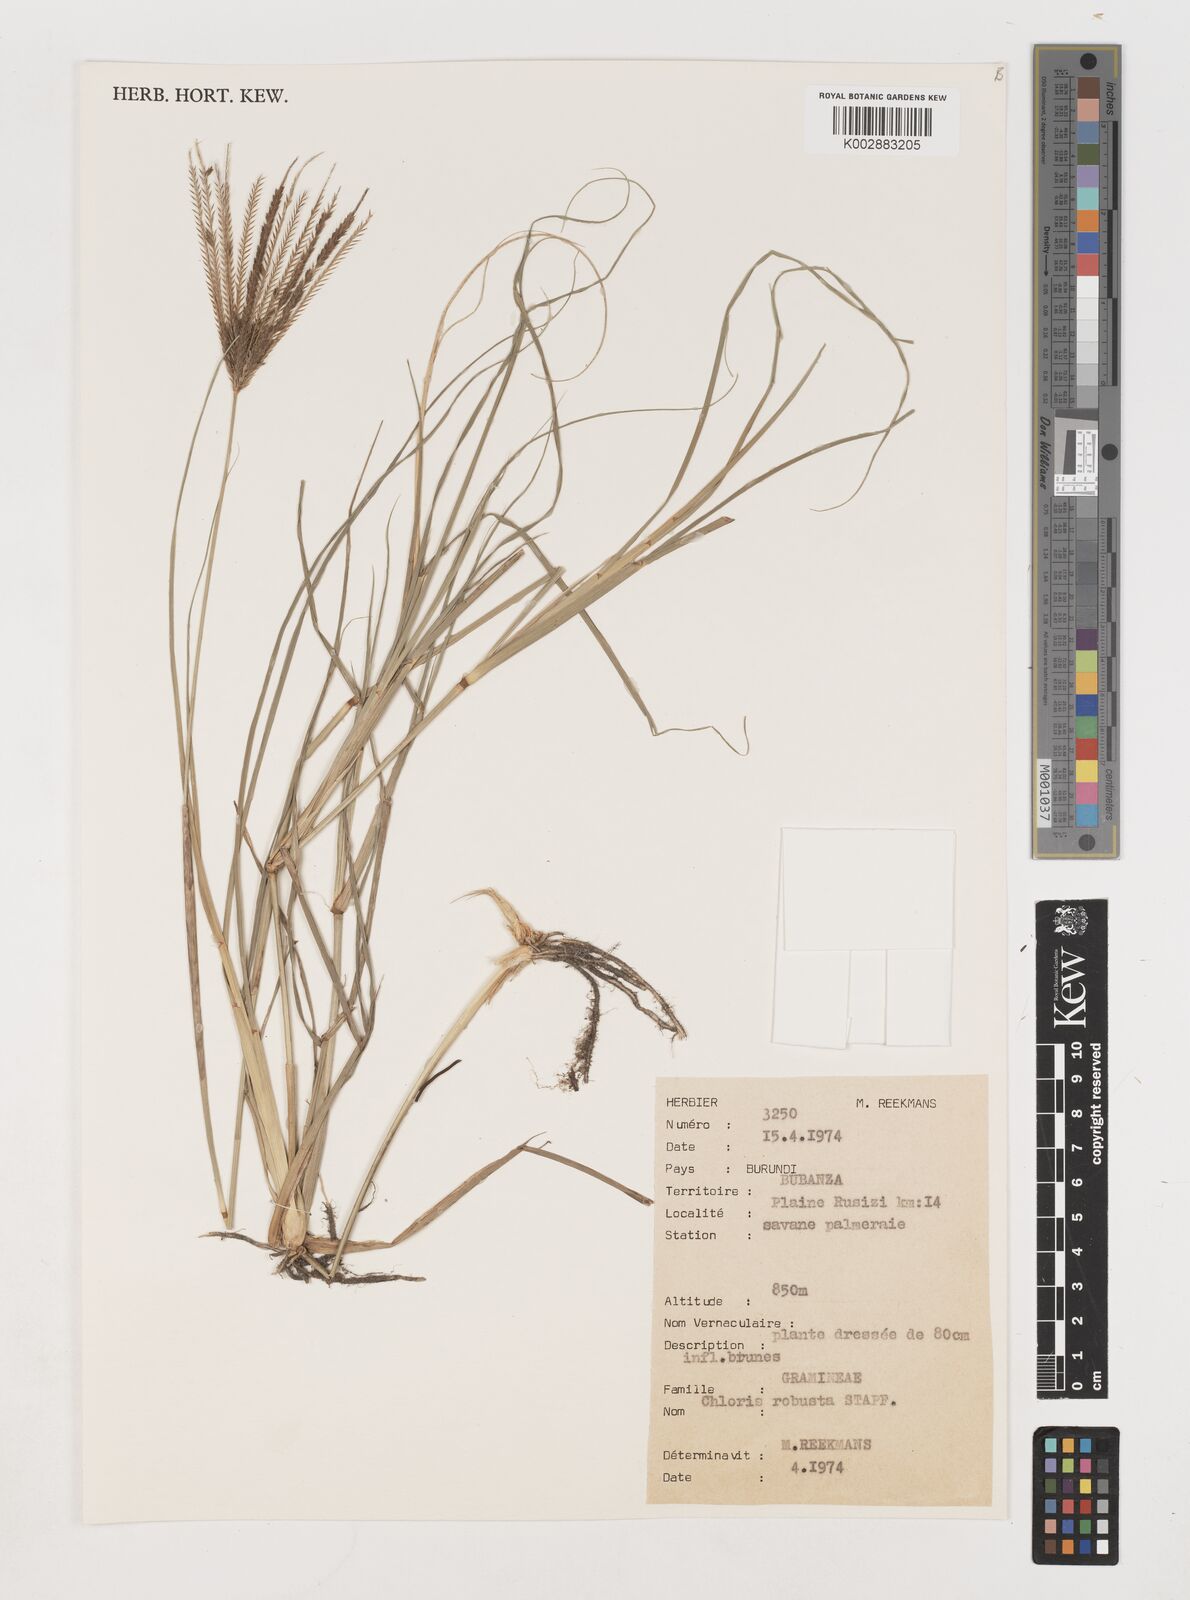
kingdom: Plantae
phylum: Tracheophyta
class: Liliopsida
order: Poales
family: Poaceae
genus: Chloris
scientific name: Chloris robusta
